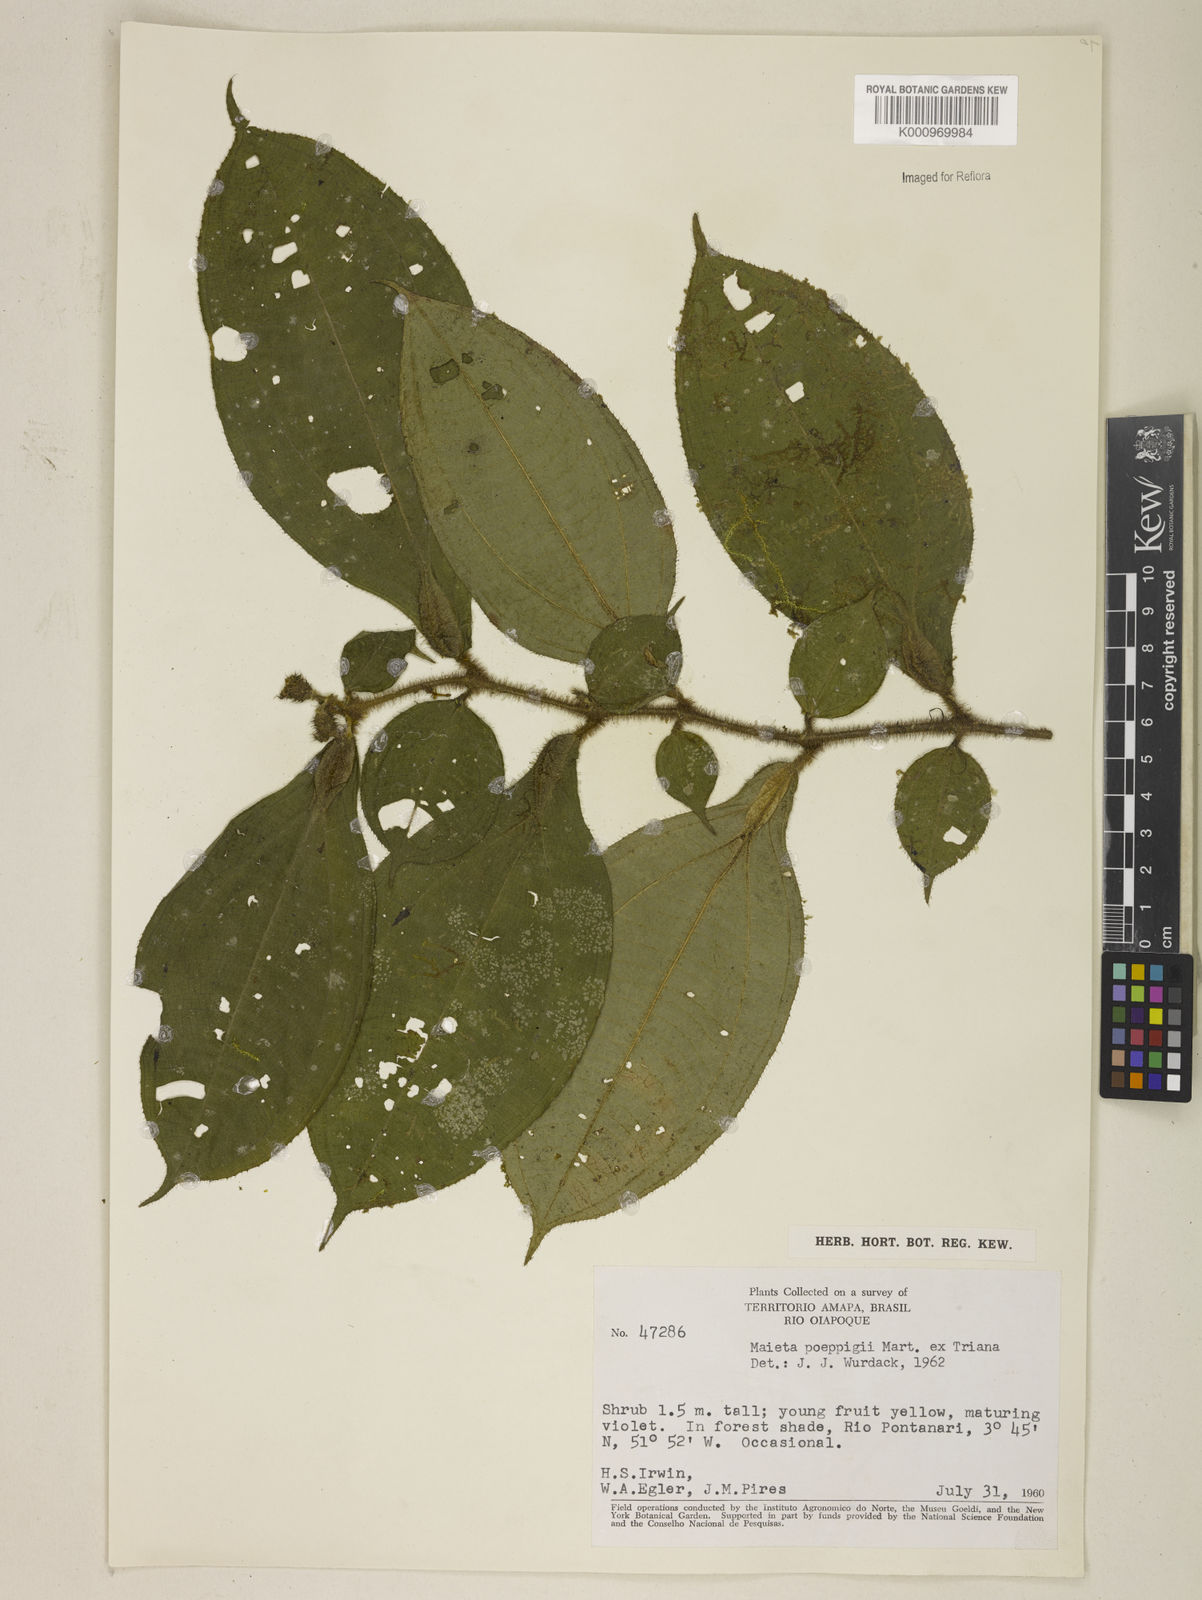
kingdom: Plantae
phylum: Tracheophyta
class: Magnoliopsida
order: Myrtales
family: Melastomataceae
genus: Miconia
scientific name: Miconia alternidomatia
